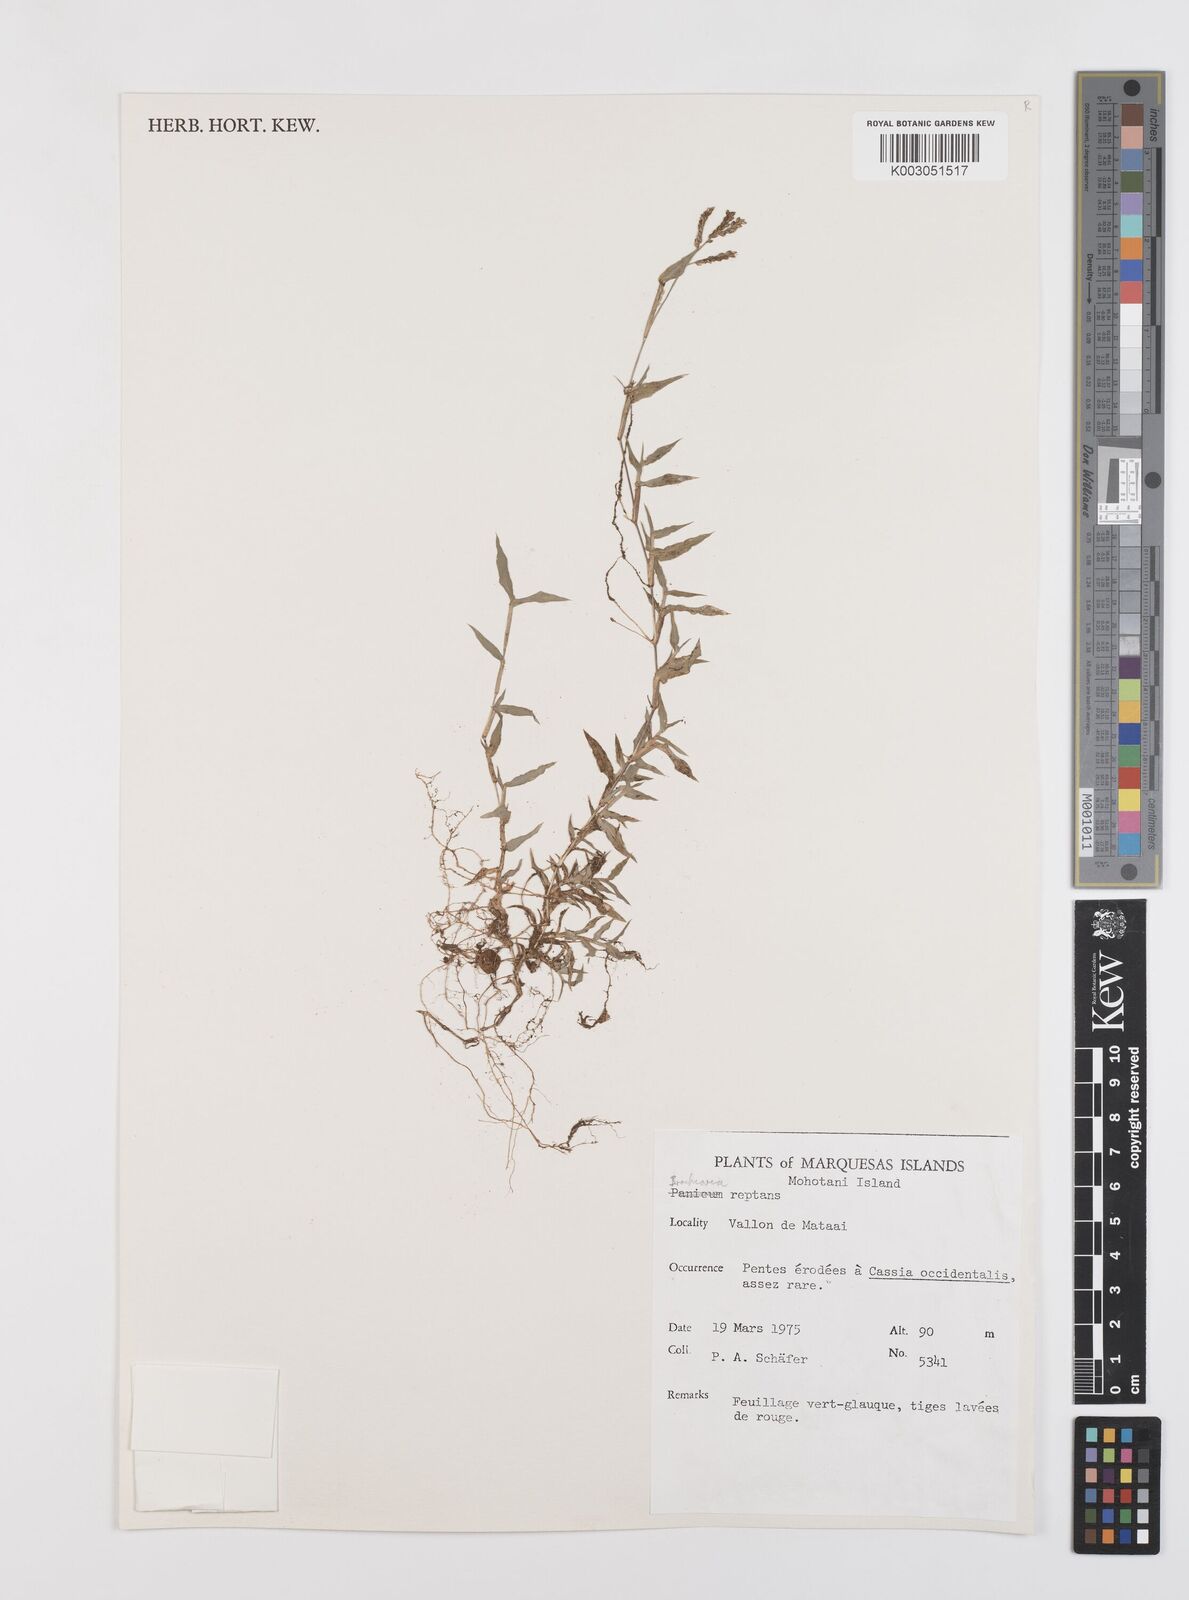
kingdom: Plantae
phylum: Tracheophyta
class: Liliopsida
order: Poales
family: Poaceae
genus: Urochloa
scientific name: Urochloa reptans
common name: Sprawling signalgrass
